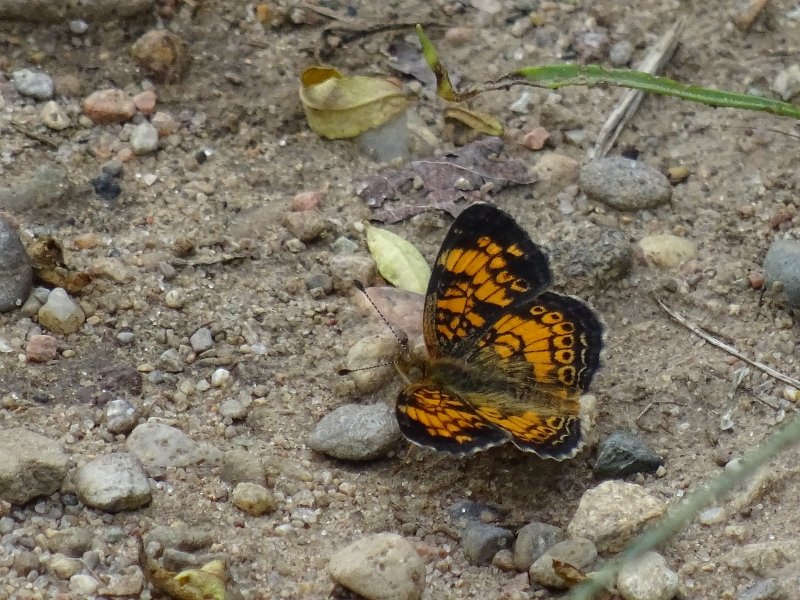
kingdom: Animalia
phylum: Arthropoda
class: Insecta
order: Lepidoptera
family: Nymphalidae
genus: Phyciodes
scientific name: Phyciodes tharos
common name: Pearl Crescent
